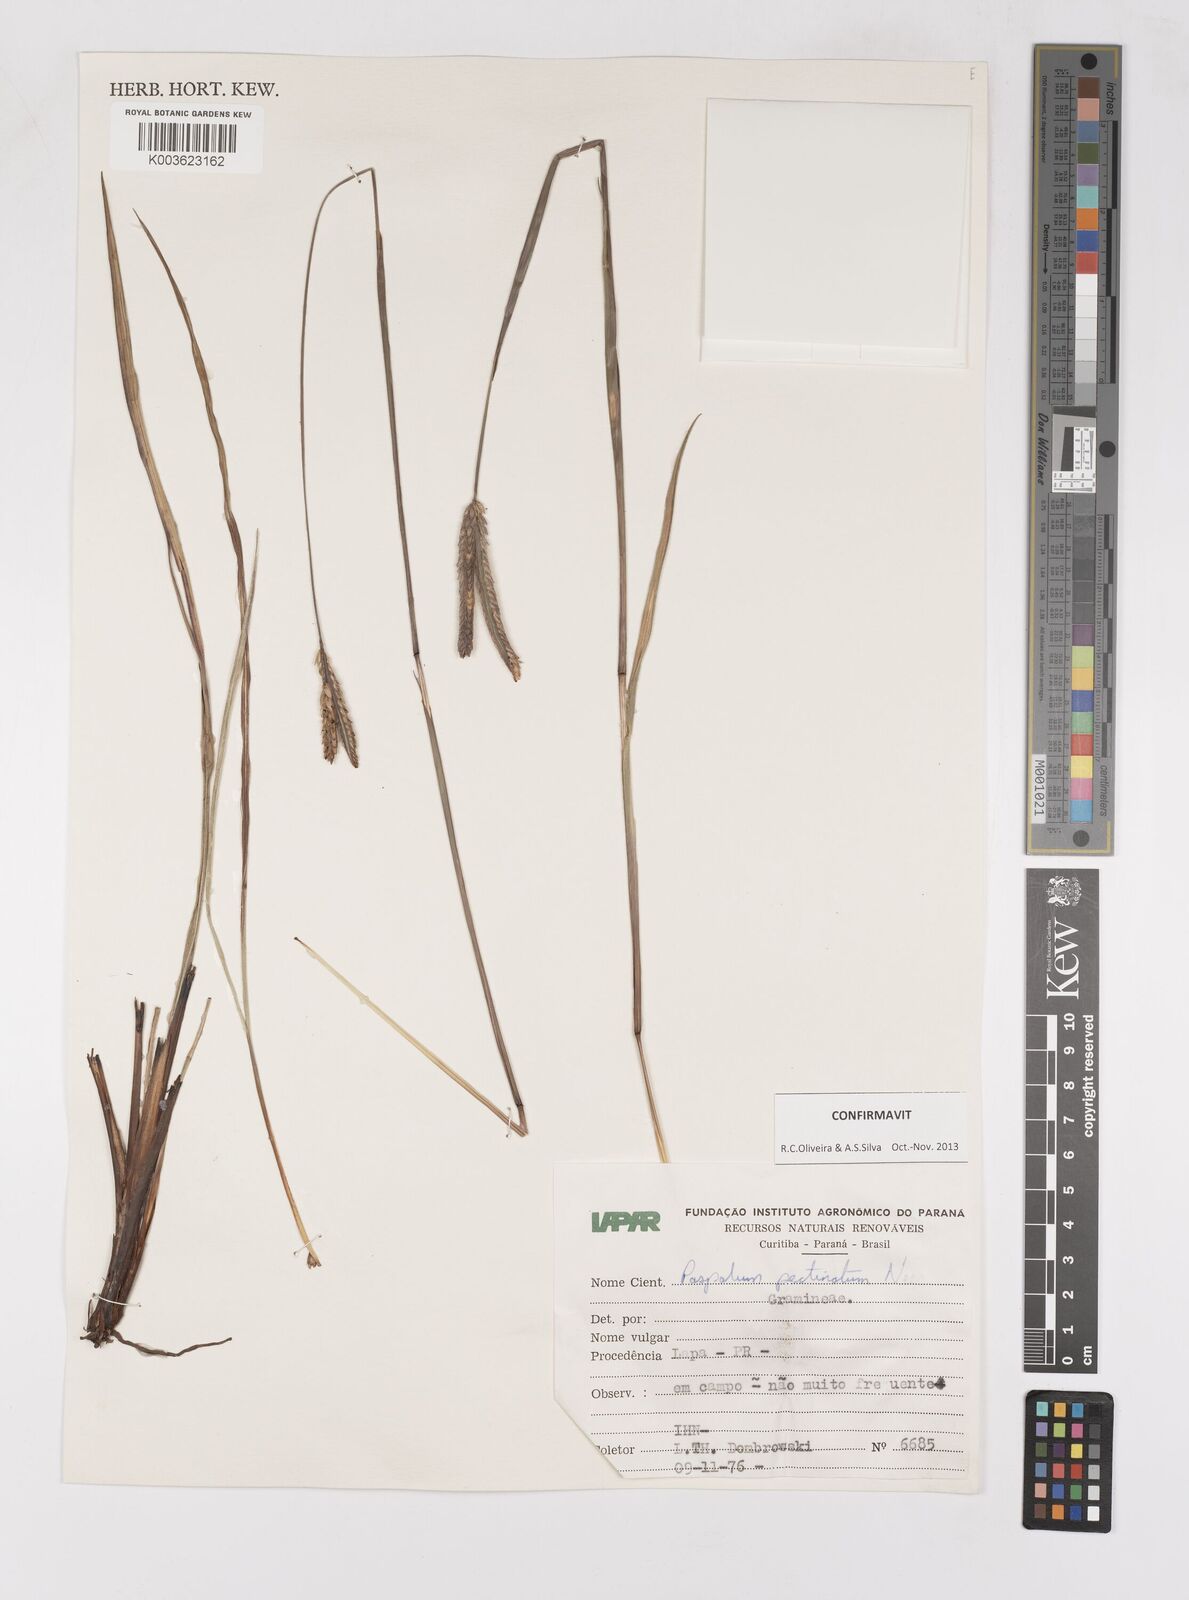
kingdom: Plantae
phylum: Tracheophyta
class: Liliopsida
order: Poales
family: Poaceae
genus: Paspalum
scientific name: Paspalum pectinatum
